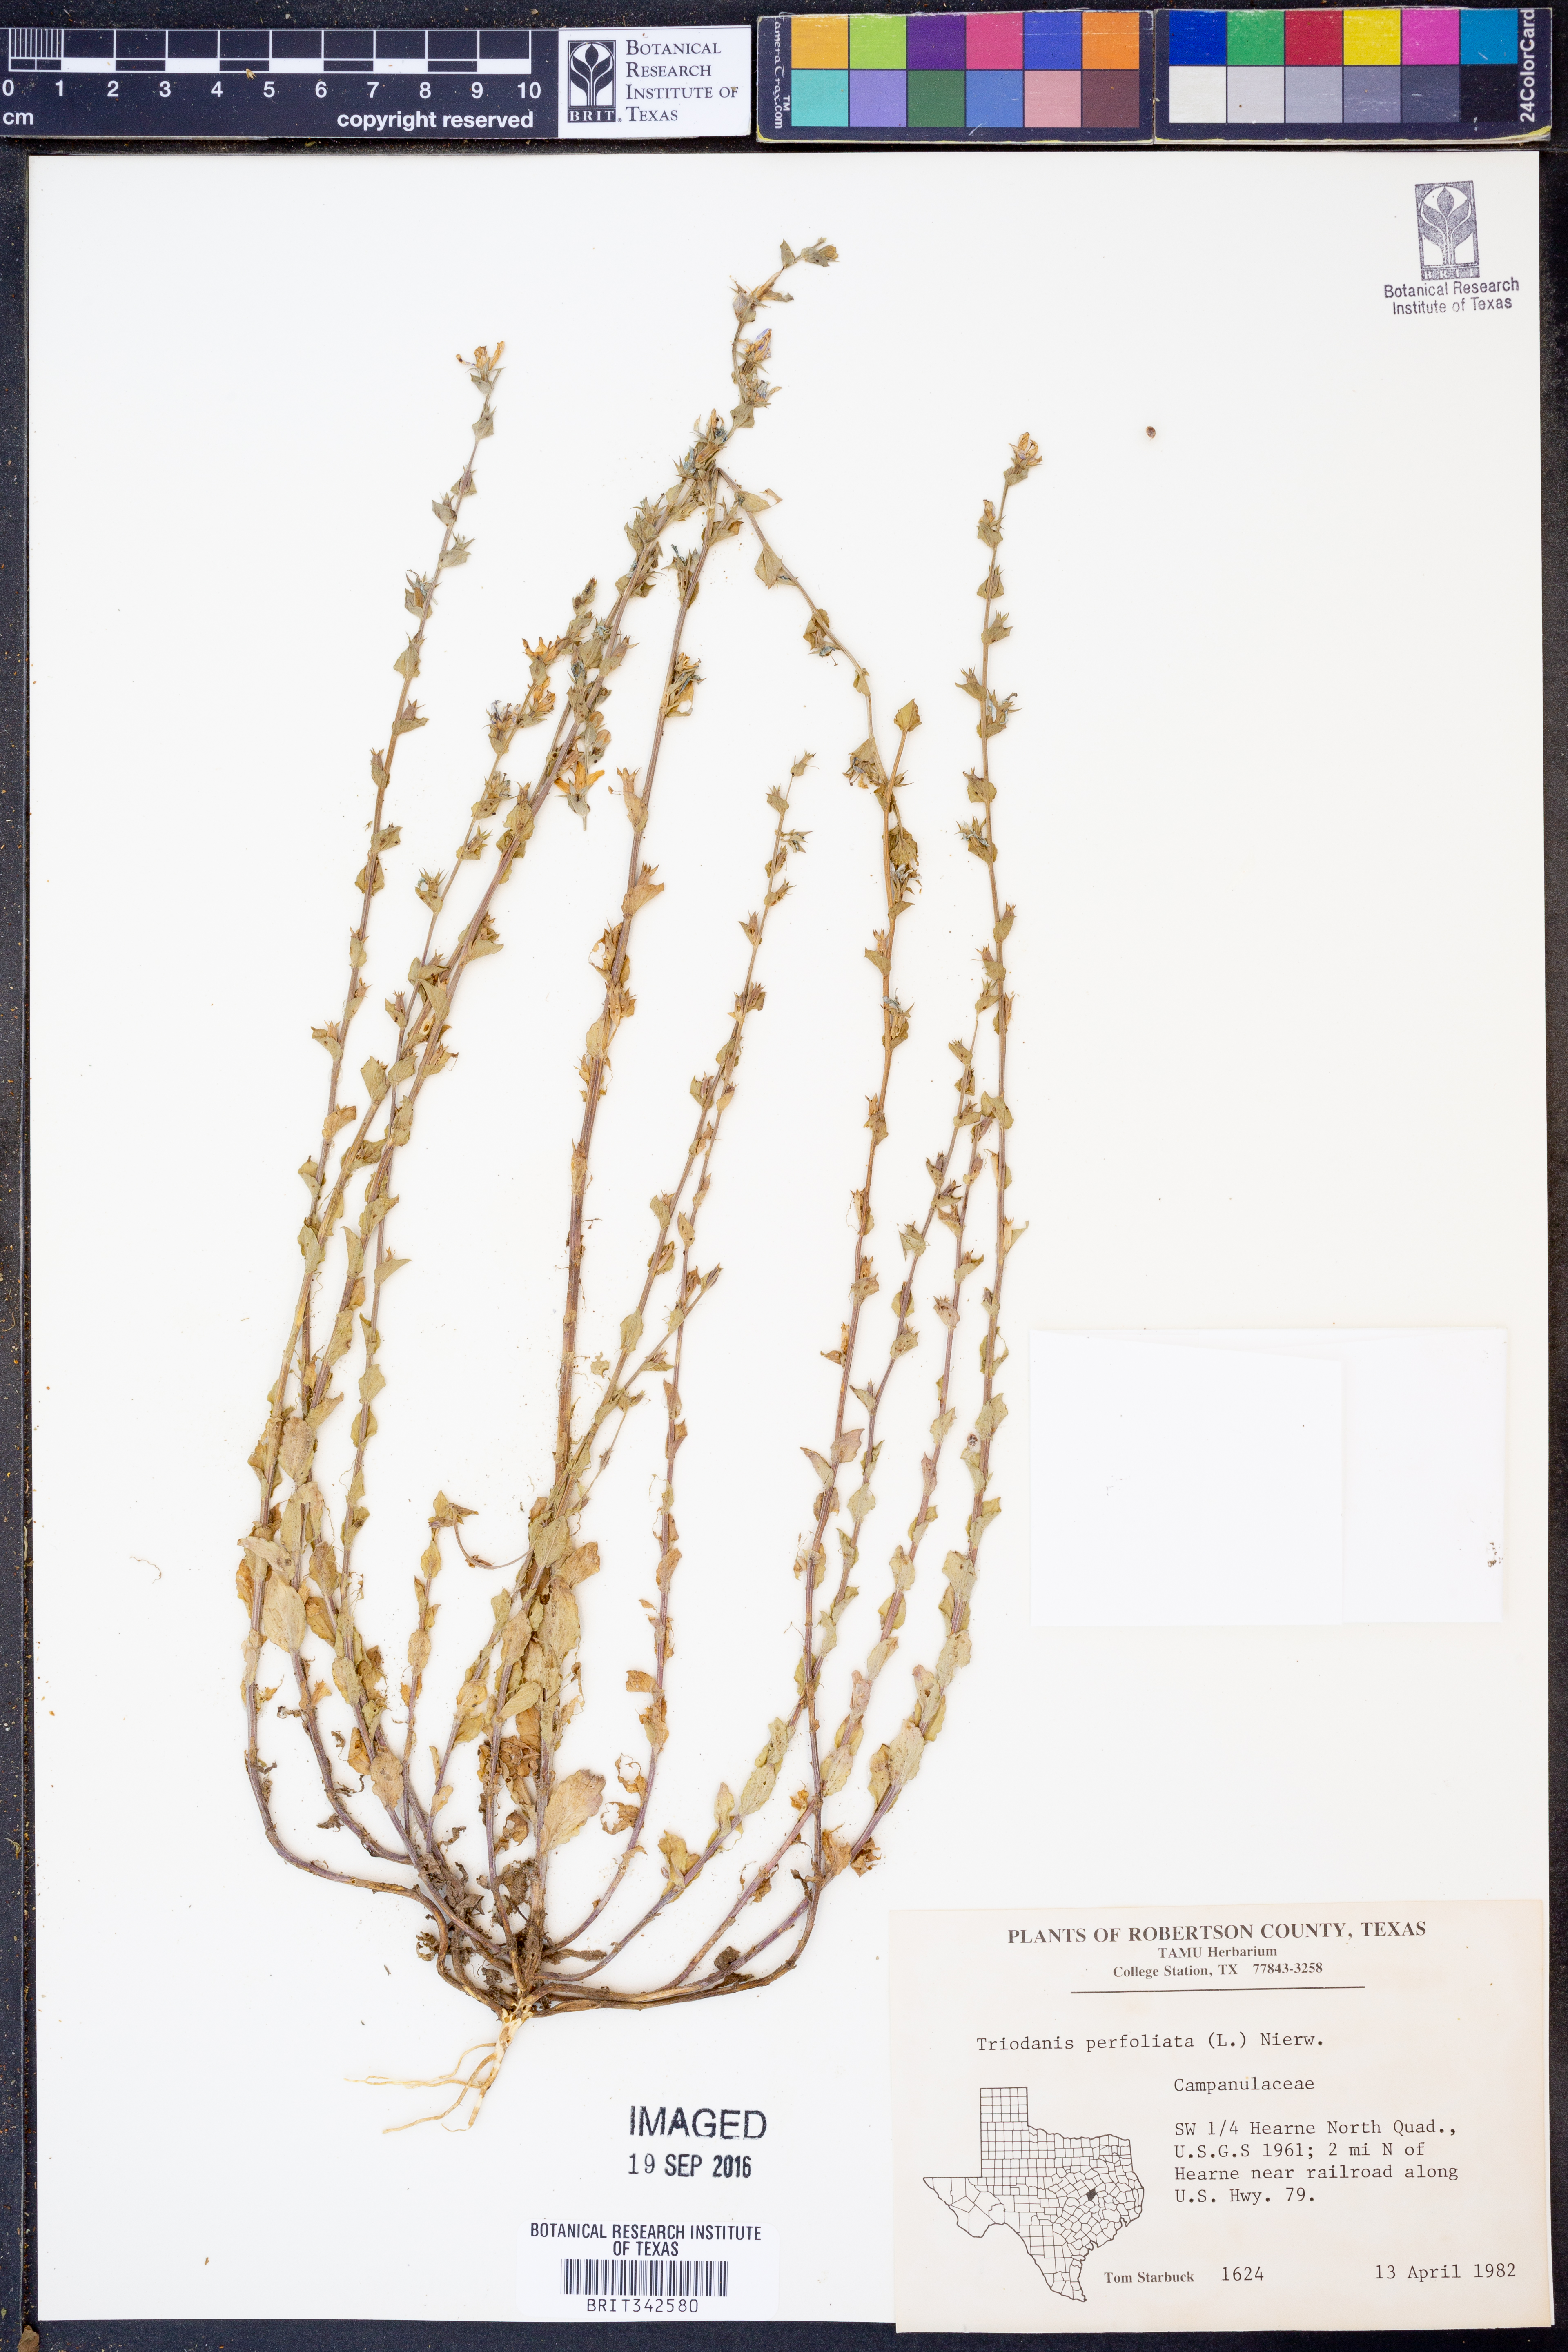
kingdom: Plantae
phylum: Tracheophyta
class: Magnoliopsida
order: Asterales
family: Campanulaceae
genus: Triodanis
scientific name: Triodanis perfoliata
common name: Clasping venus' looking-glass
